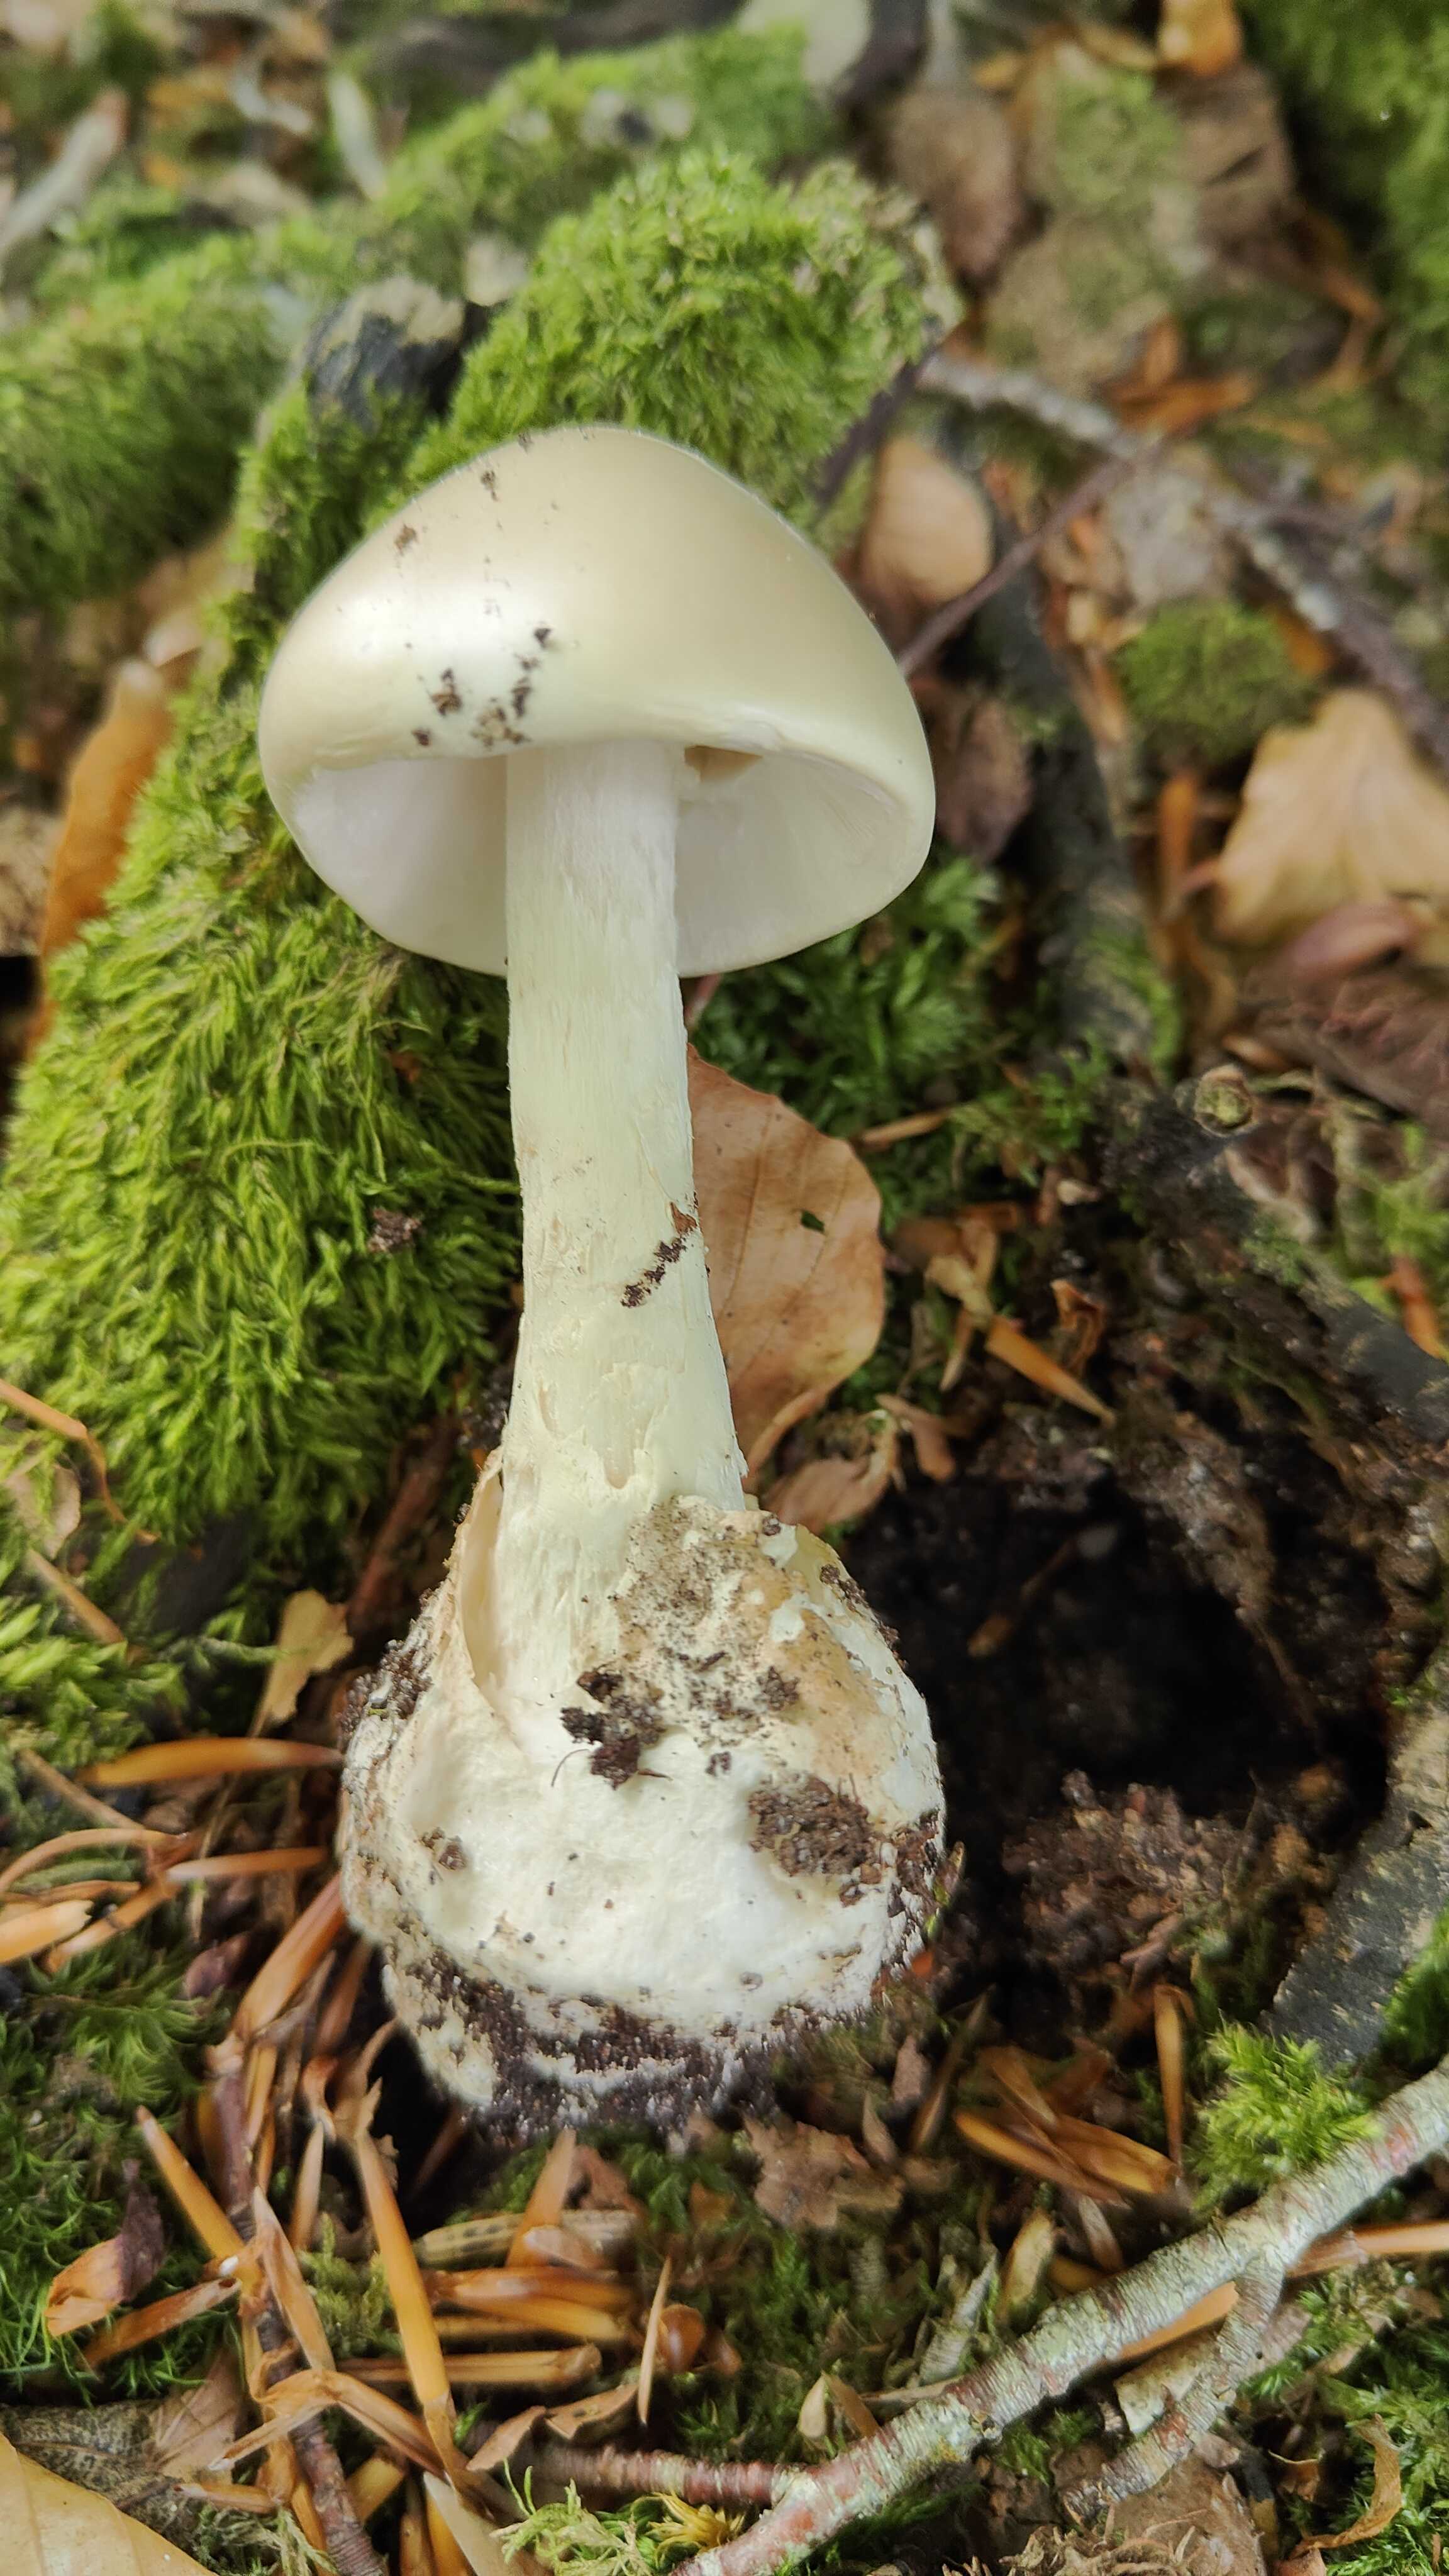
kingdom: Fungi
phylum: Basidiomycota
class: Agaricomycetes
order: Agaricales
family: Amanitaceae
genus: Amanita
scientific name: Amanita virosa
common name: snehvid fluesvamp
